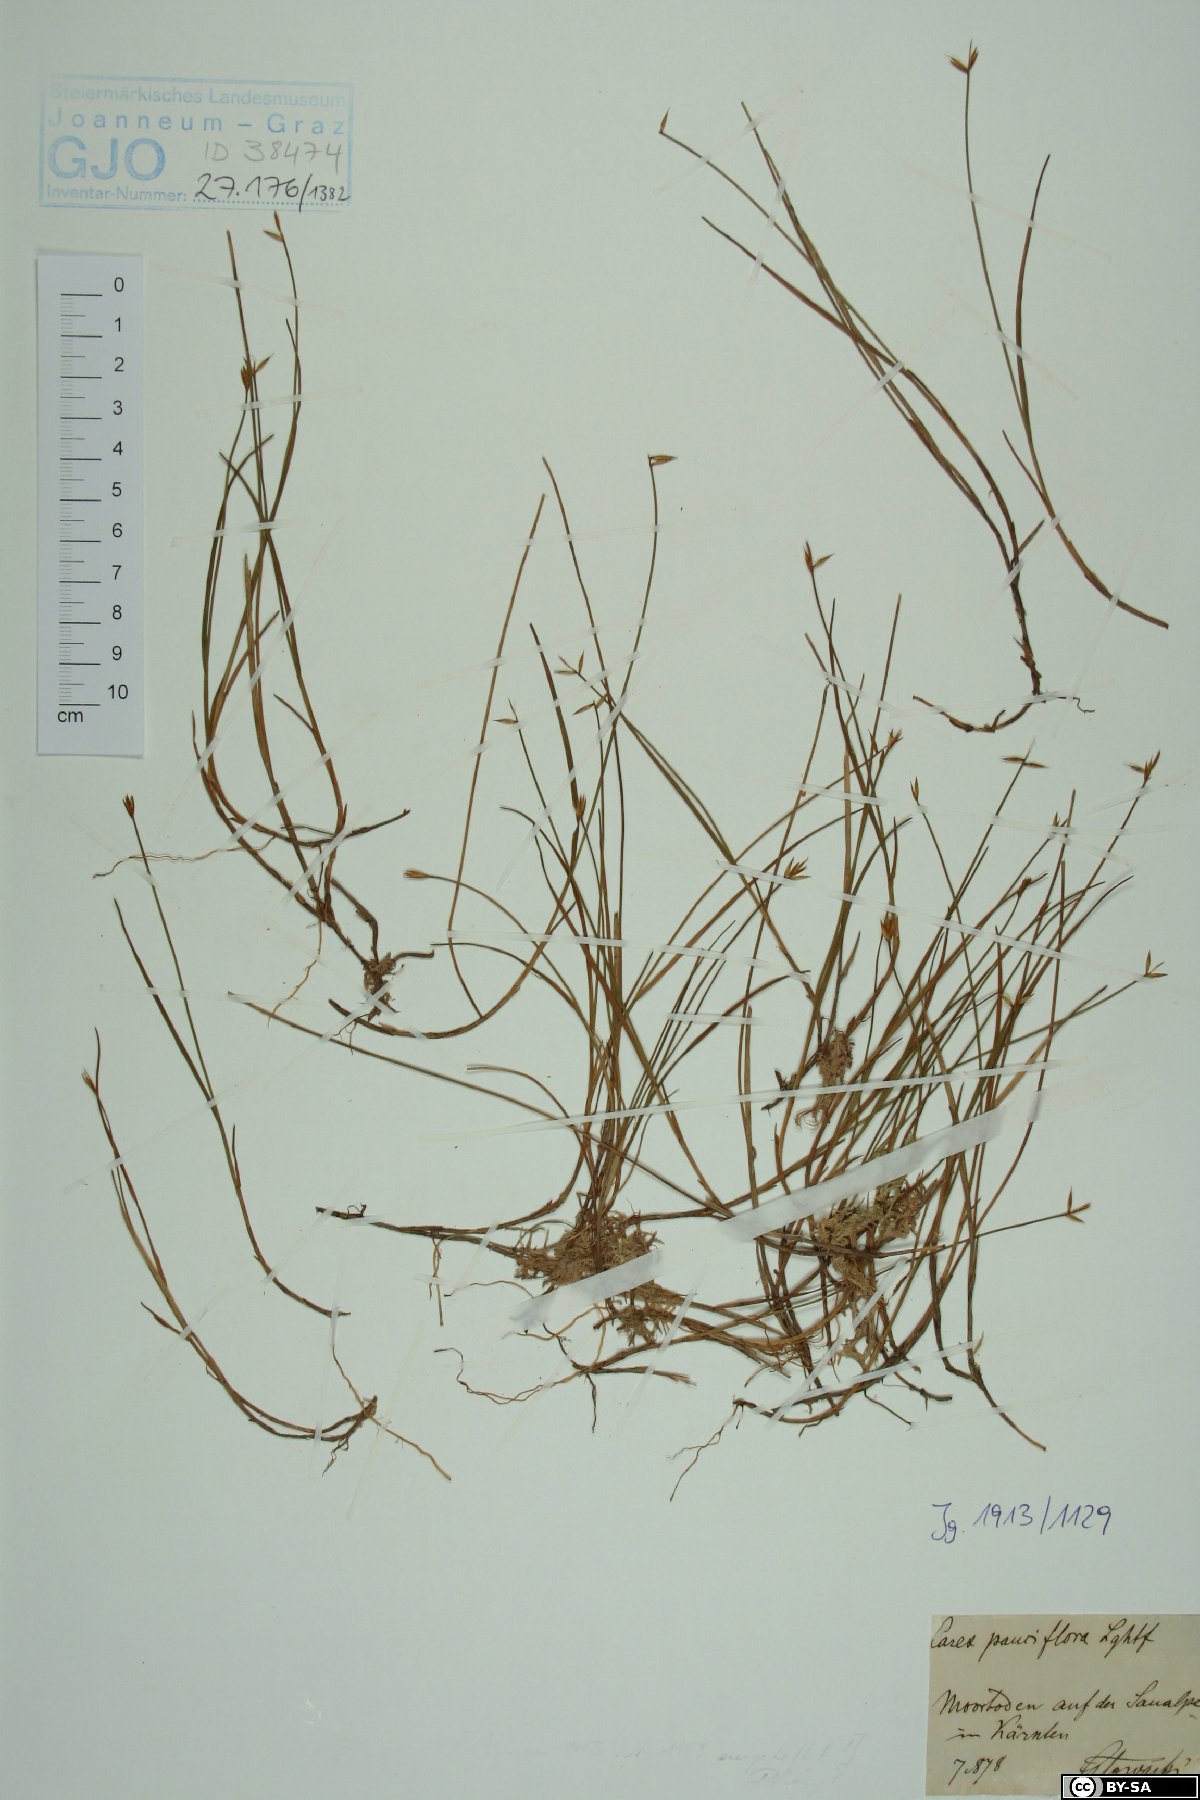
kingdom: Plantae
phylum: Tracheophyta
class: Liliopsida
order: Poales
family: Cyperaceae
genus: Carex
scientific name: Carex pauciflora
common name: Few-flowered sedge
